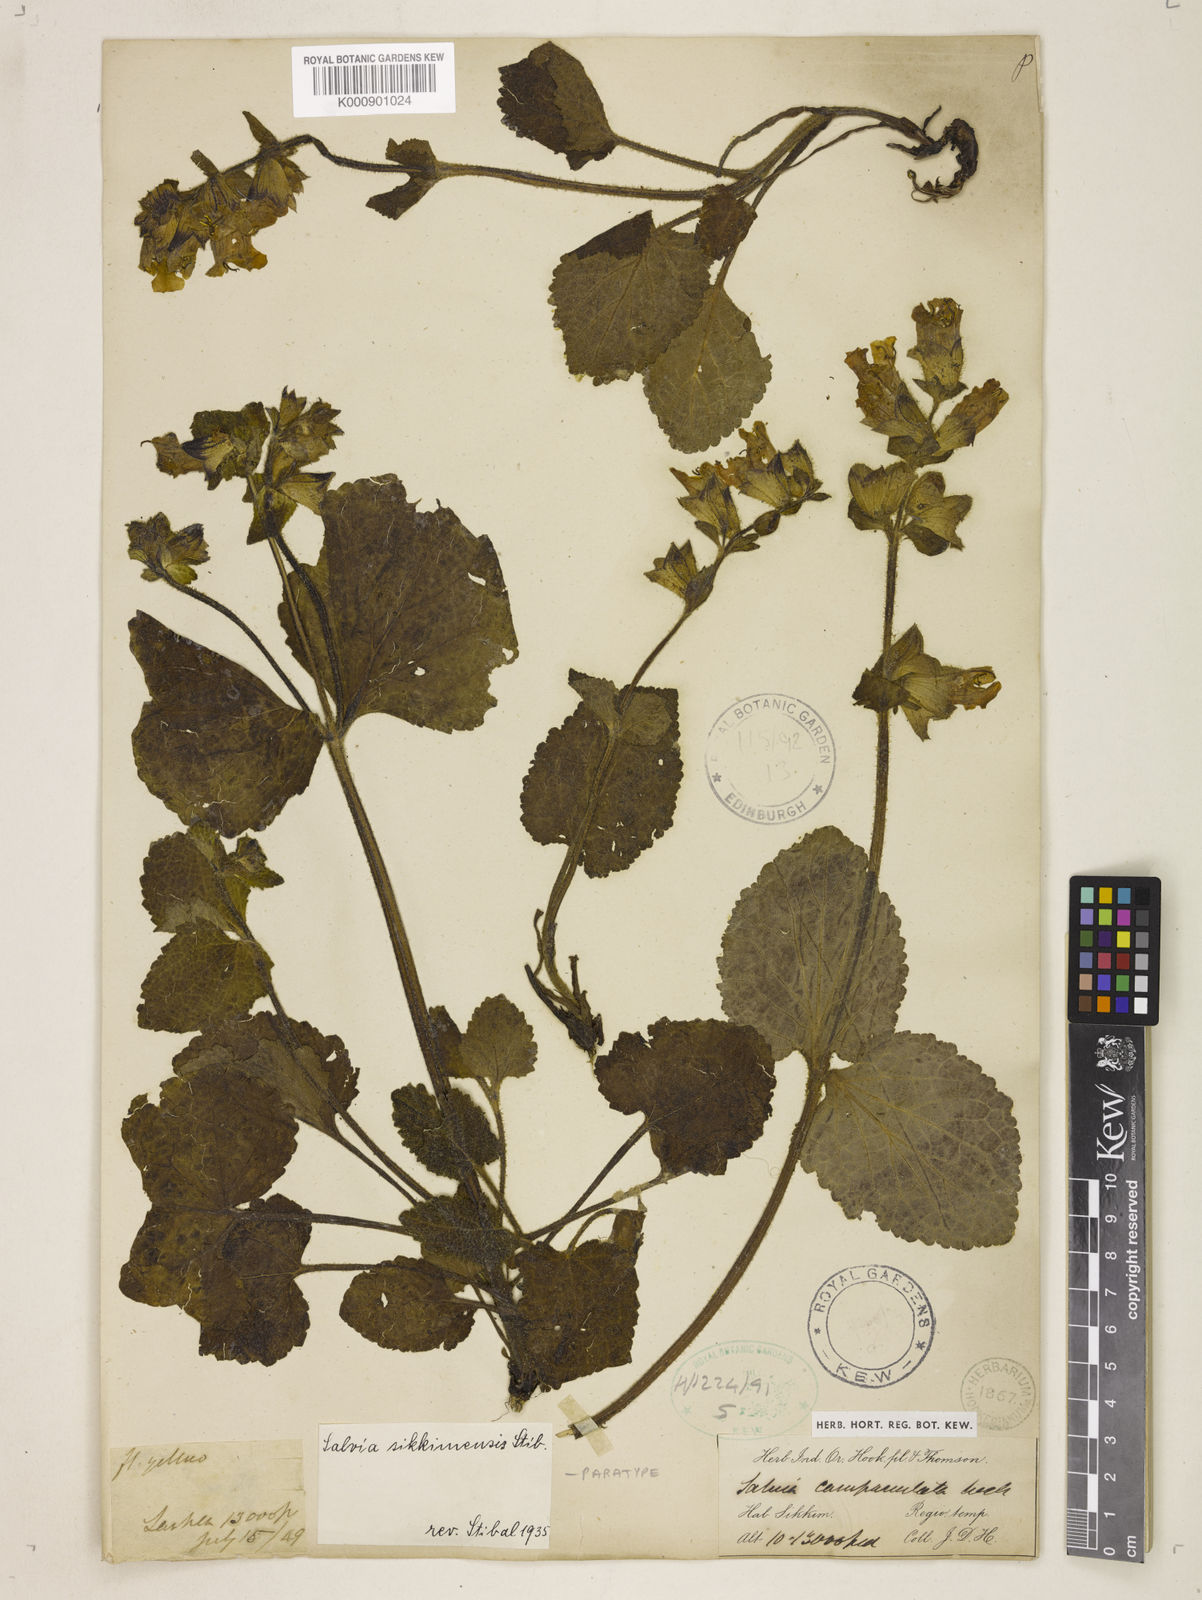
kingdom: Plantae
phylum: Tracheophyta
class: Magnoliopsida
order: Lamiales
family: Lamiaceae
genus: Salvia
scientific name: Salvia sikkimensis
